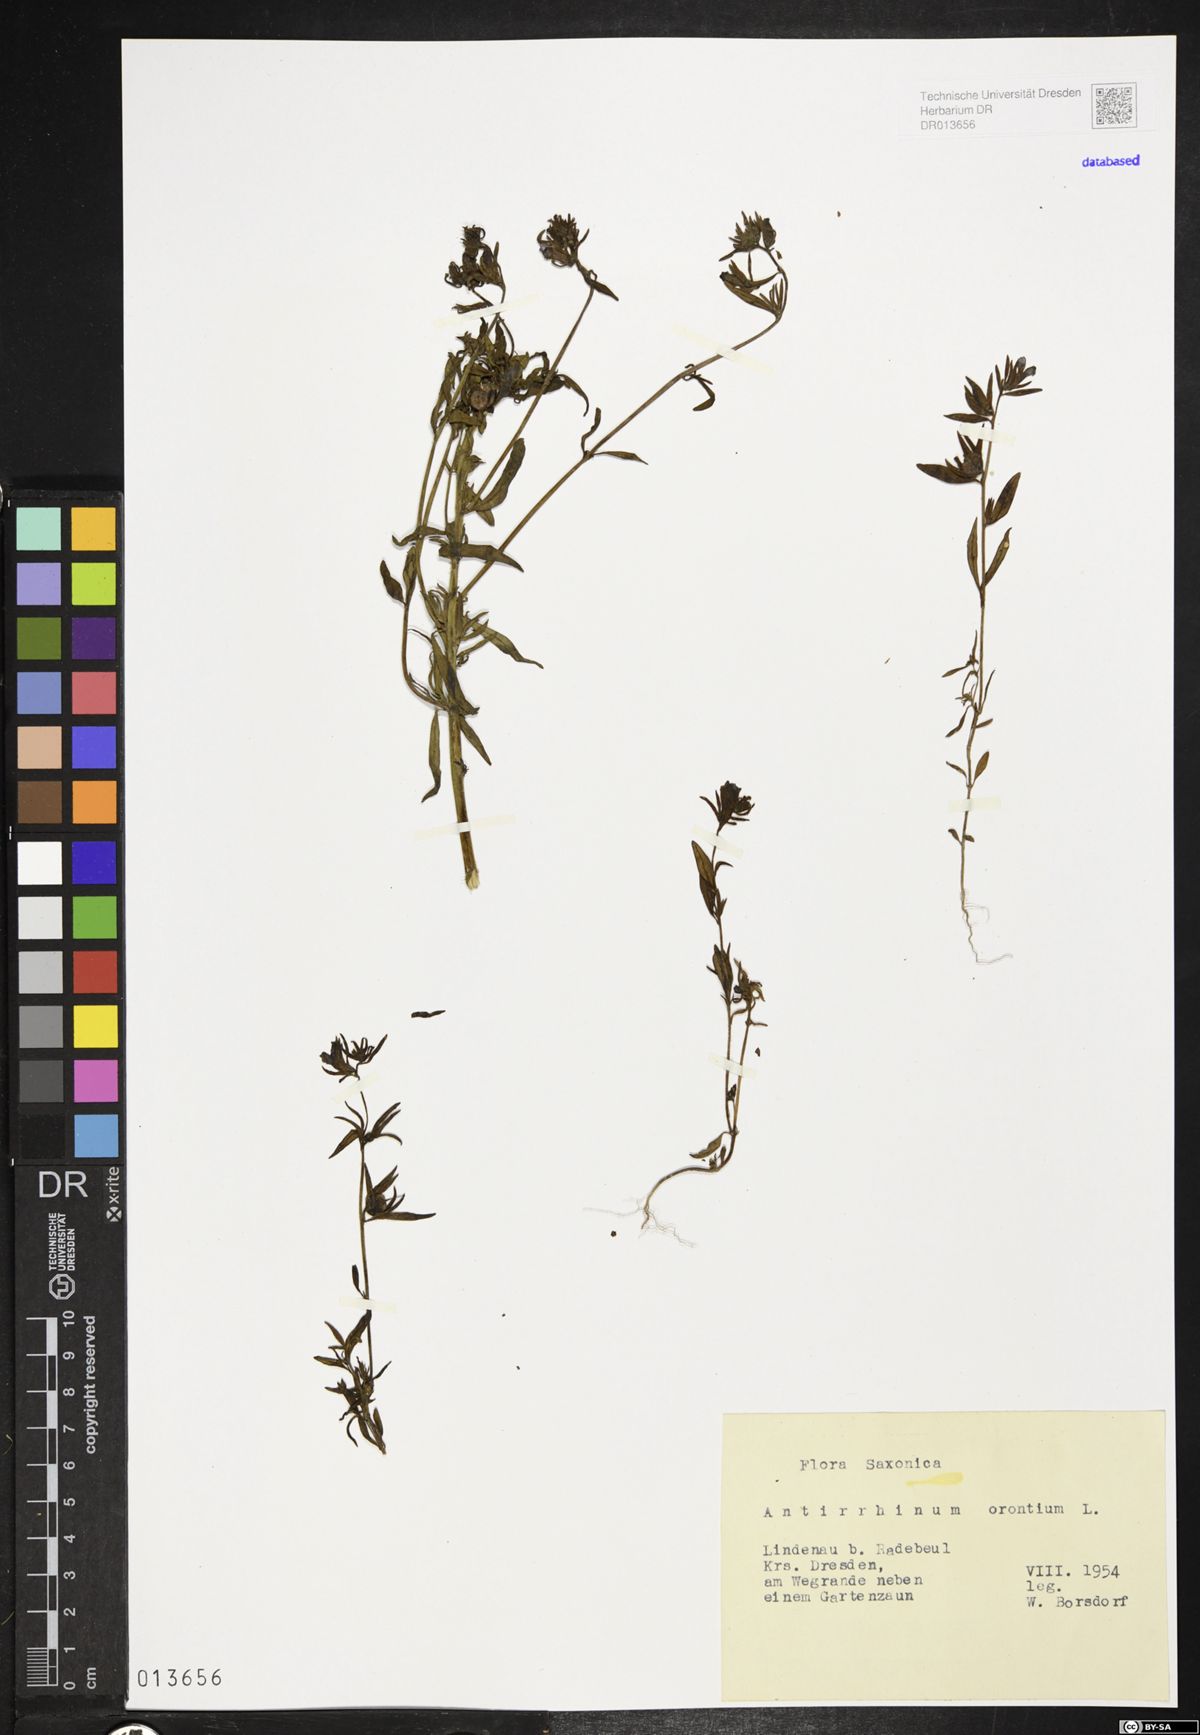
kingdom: Plantae
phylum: Tracheophyta
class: Magnoliopsida
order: Lamiales
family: Plantaginaceae
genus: Misopates
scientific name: Misopates orontium
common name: Weasel's-snout
